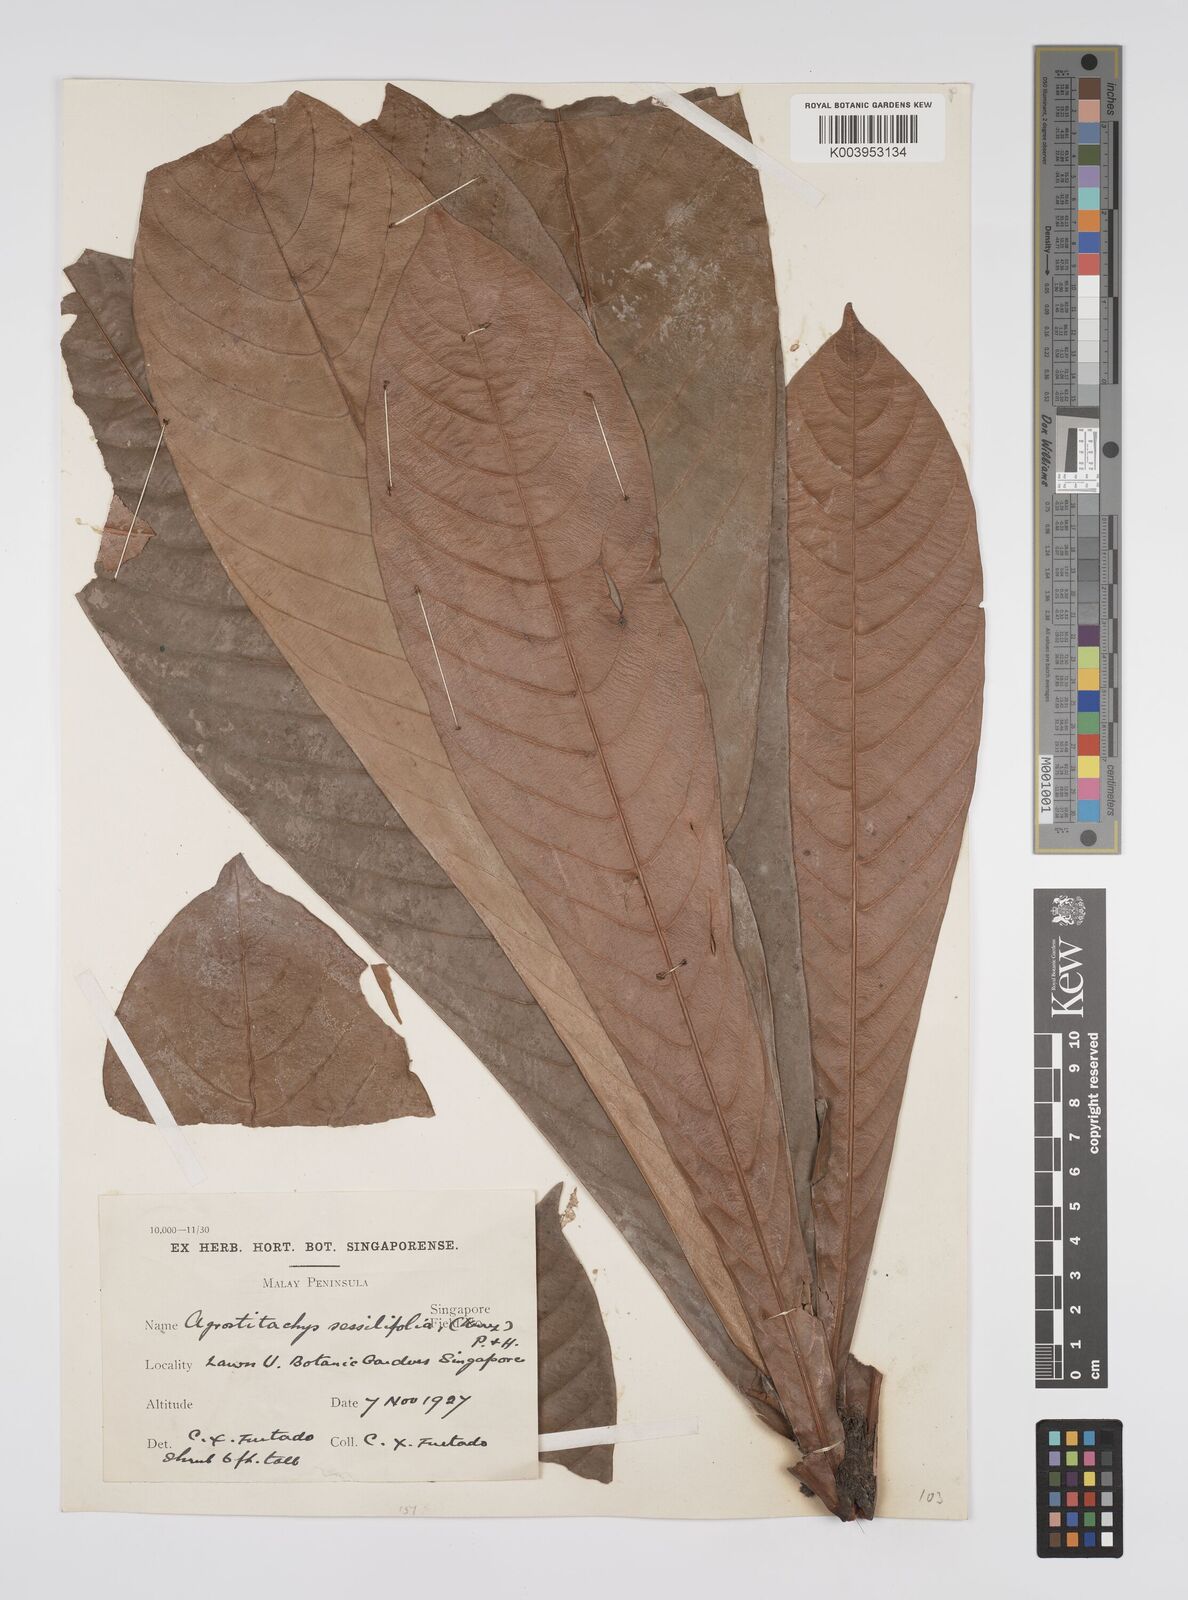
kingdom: Plantae
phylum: Tracheophyta
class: Magnoliopsida
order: Malpighiales
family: Euphorbiaceae
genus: Agrostistachys
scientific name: Agrostistachys sessilifolia
